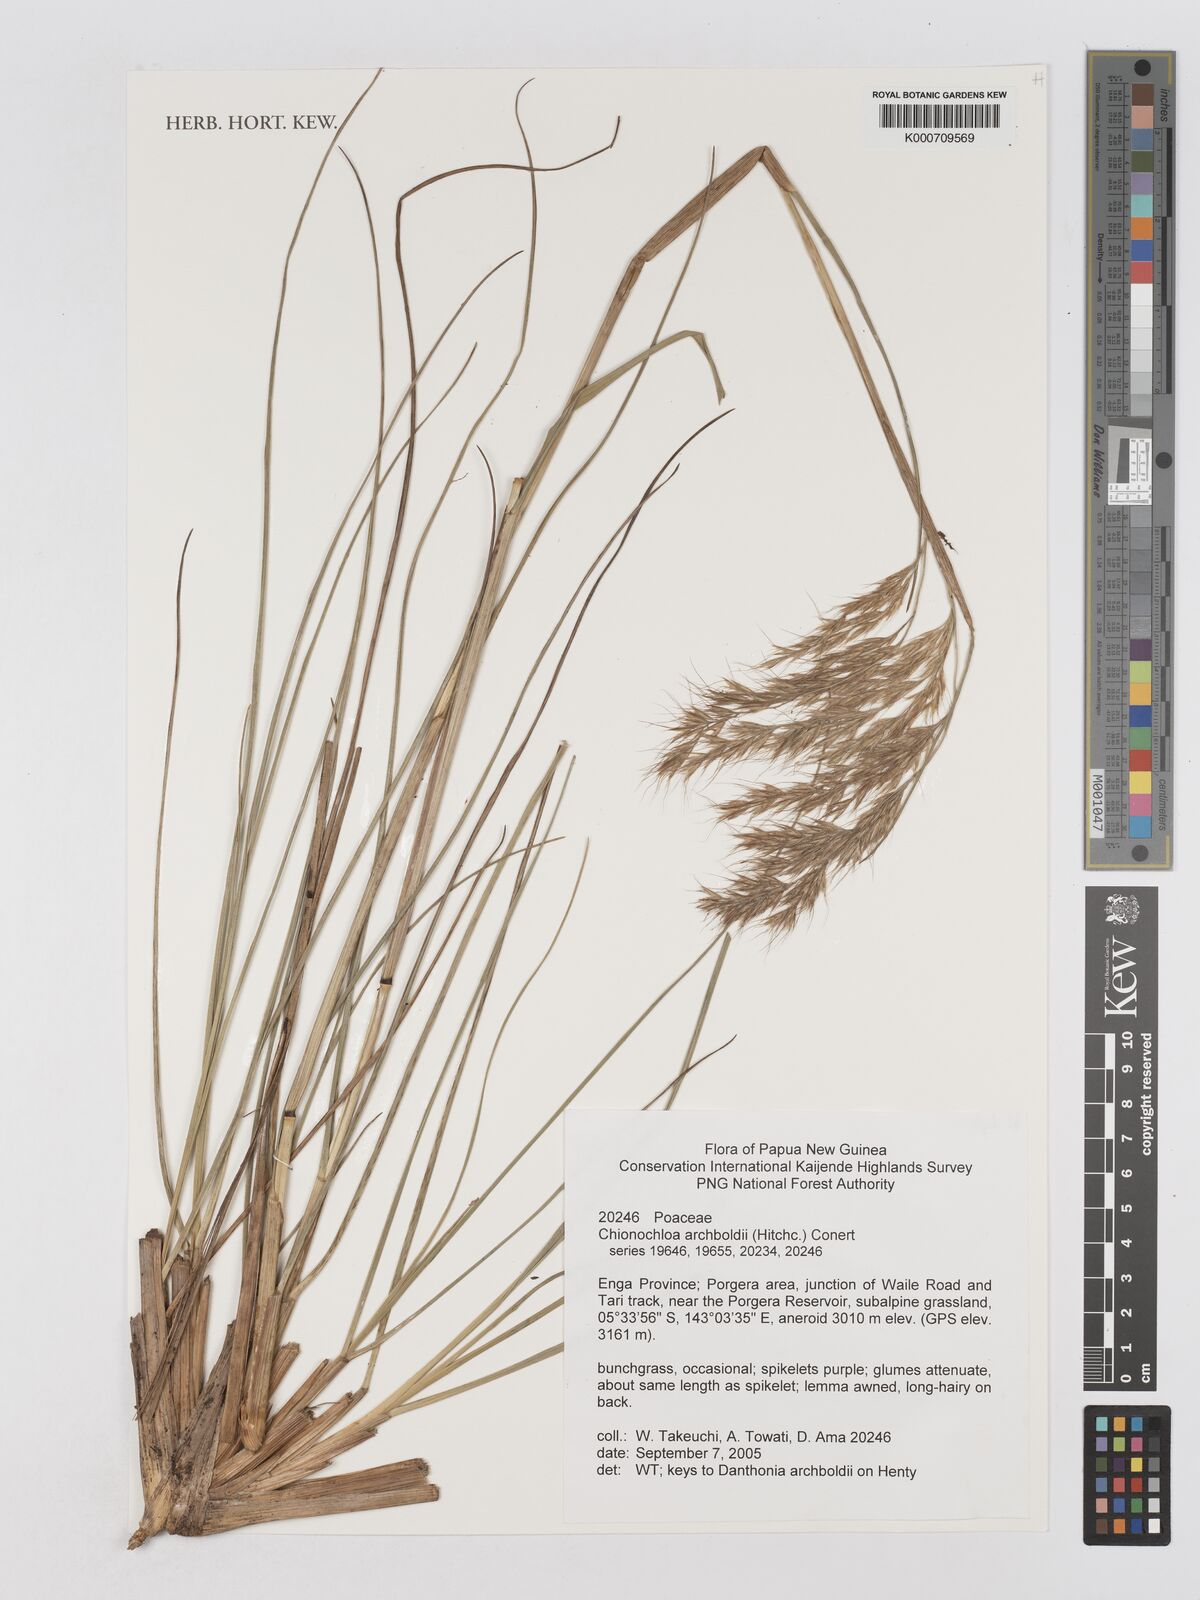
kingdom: Plantae
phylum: Tracheophyta
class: Liliopsida
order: Poales
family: Poaceae
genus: Chimaerochloa
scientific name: Chimaerochloa archboldii
